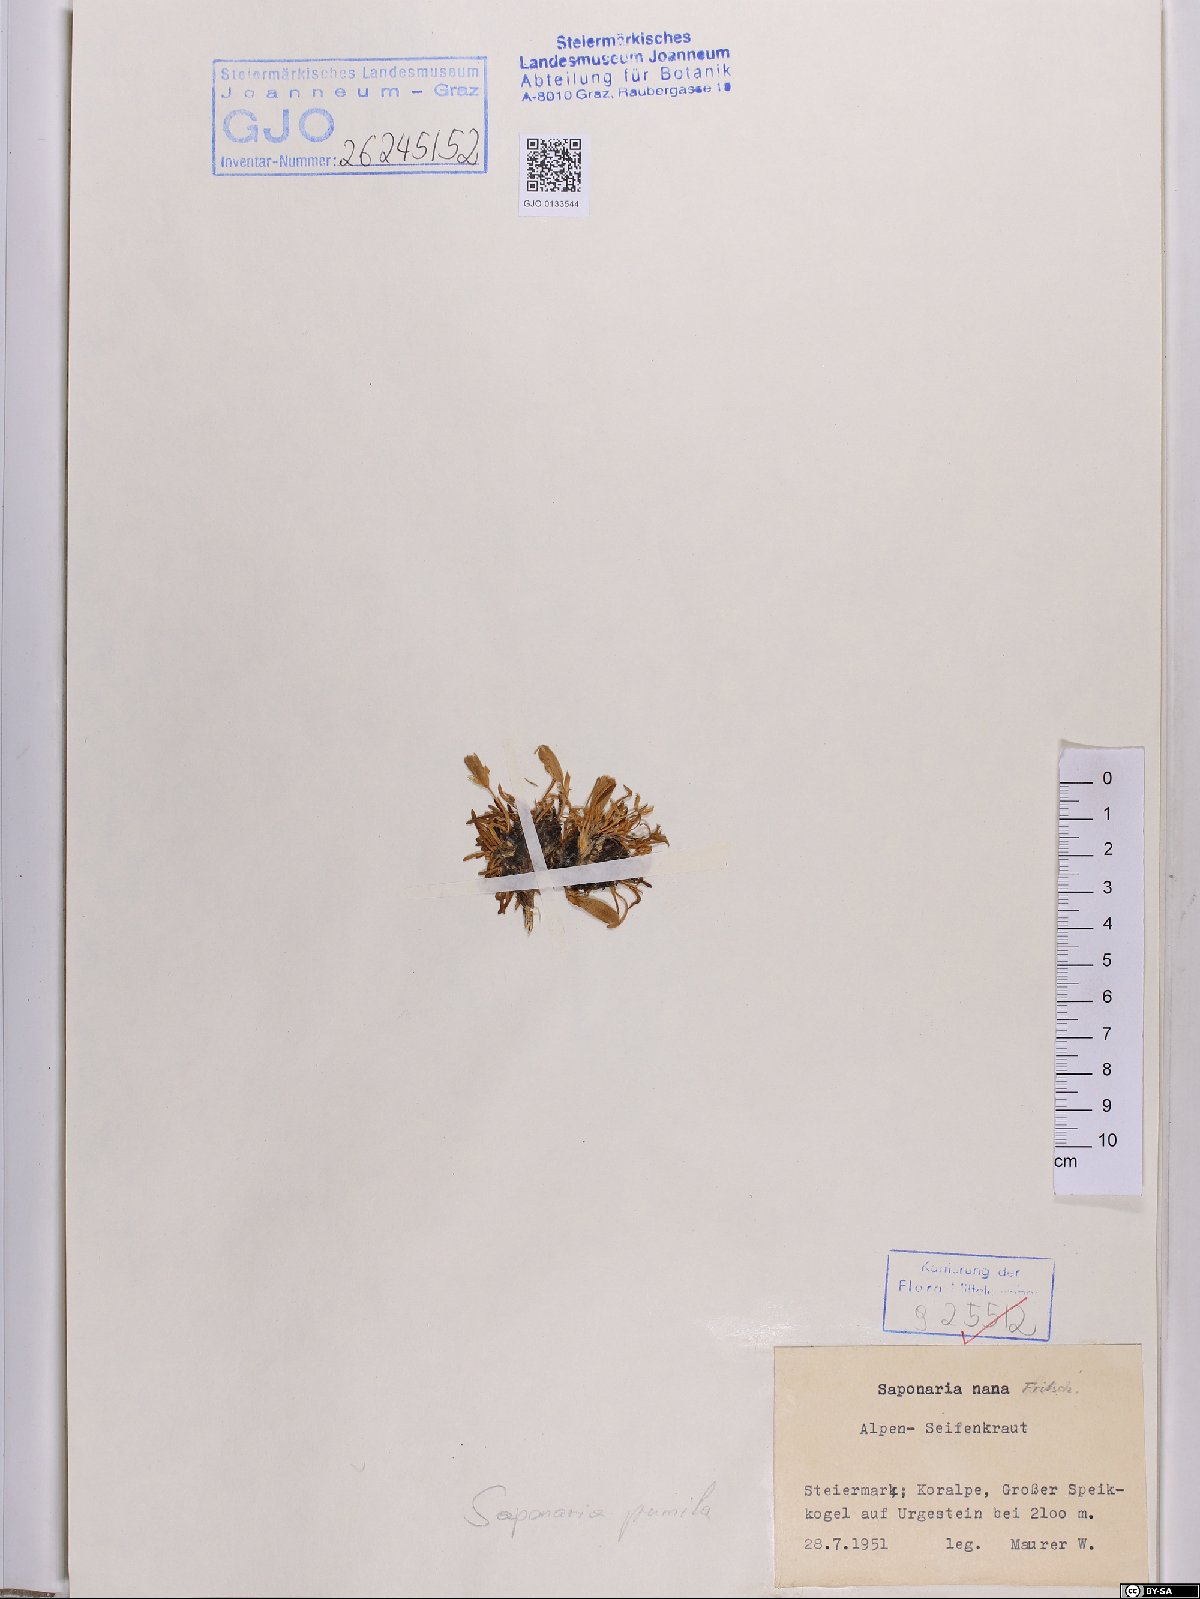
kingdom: Plantae
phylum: Tracheophyta
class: Magnoliopsida
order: Caryophyllales
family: Caryophyllaceae
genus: Saponaria
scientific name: Saponaria pumila
